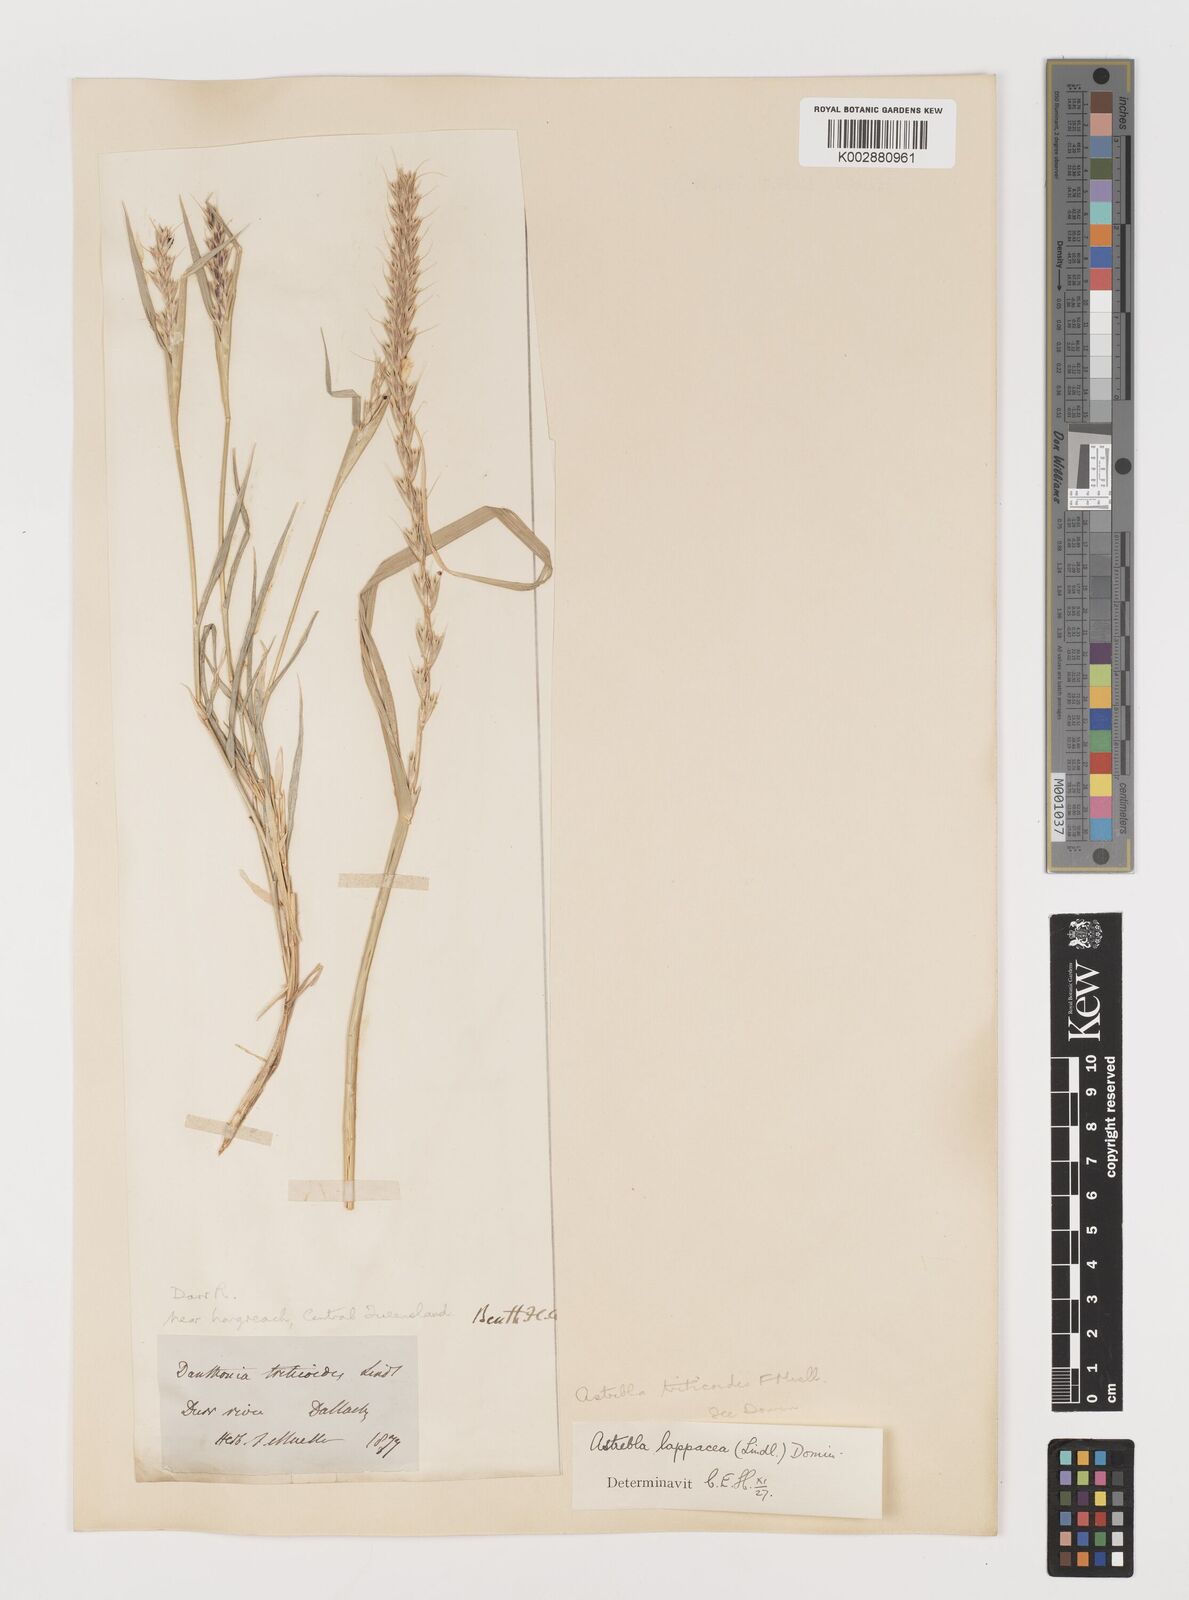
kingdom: Plantae
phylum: Tracheophyta
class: Liliopsida
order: Poales
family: Poaceae
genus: Astrebla
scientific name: Astrebla lappacea
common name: Curly mitchell grass
